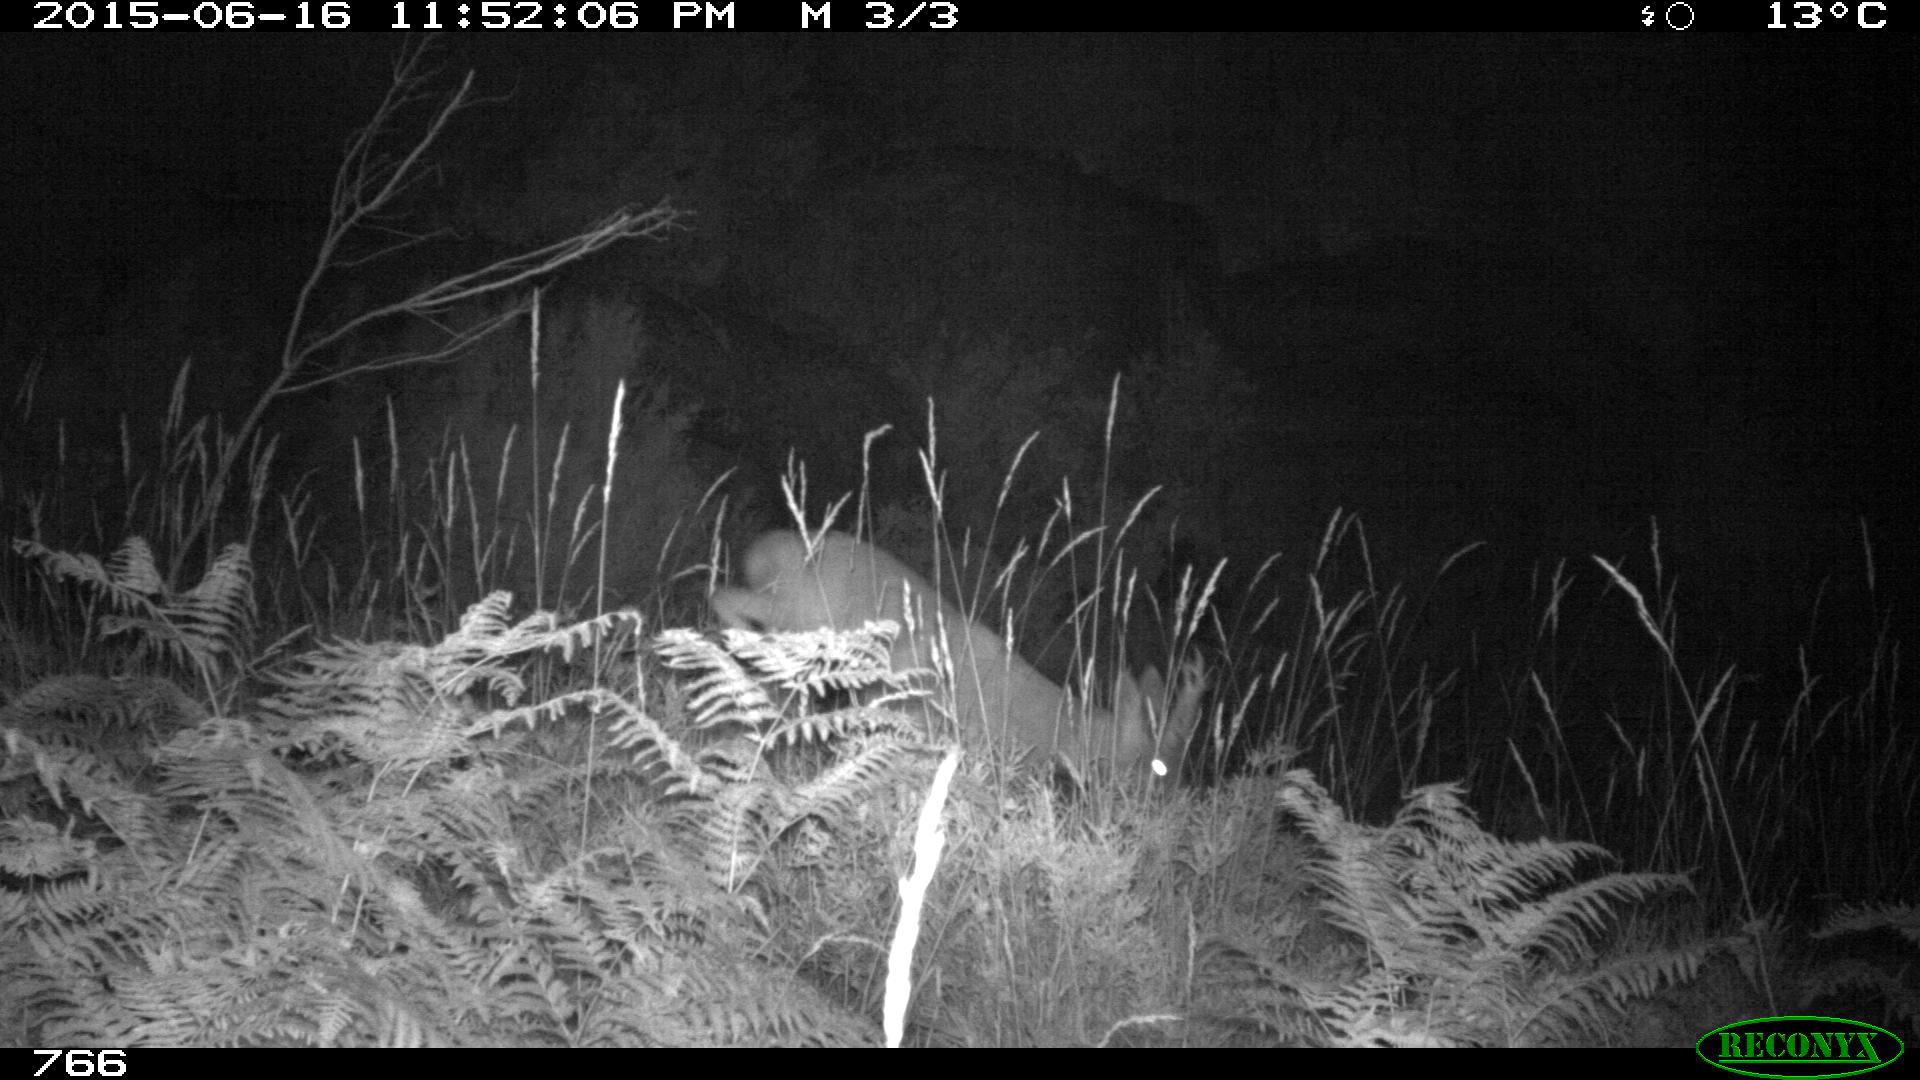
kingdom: Animalia
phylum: Chordata
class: Mammalia
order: Artiodactyla
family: Cervidae
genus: Capreolus
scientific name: Capreolus capreolus
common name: Western roe deer
